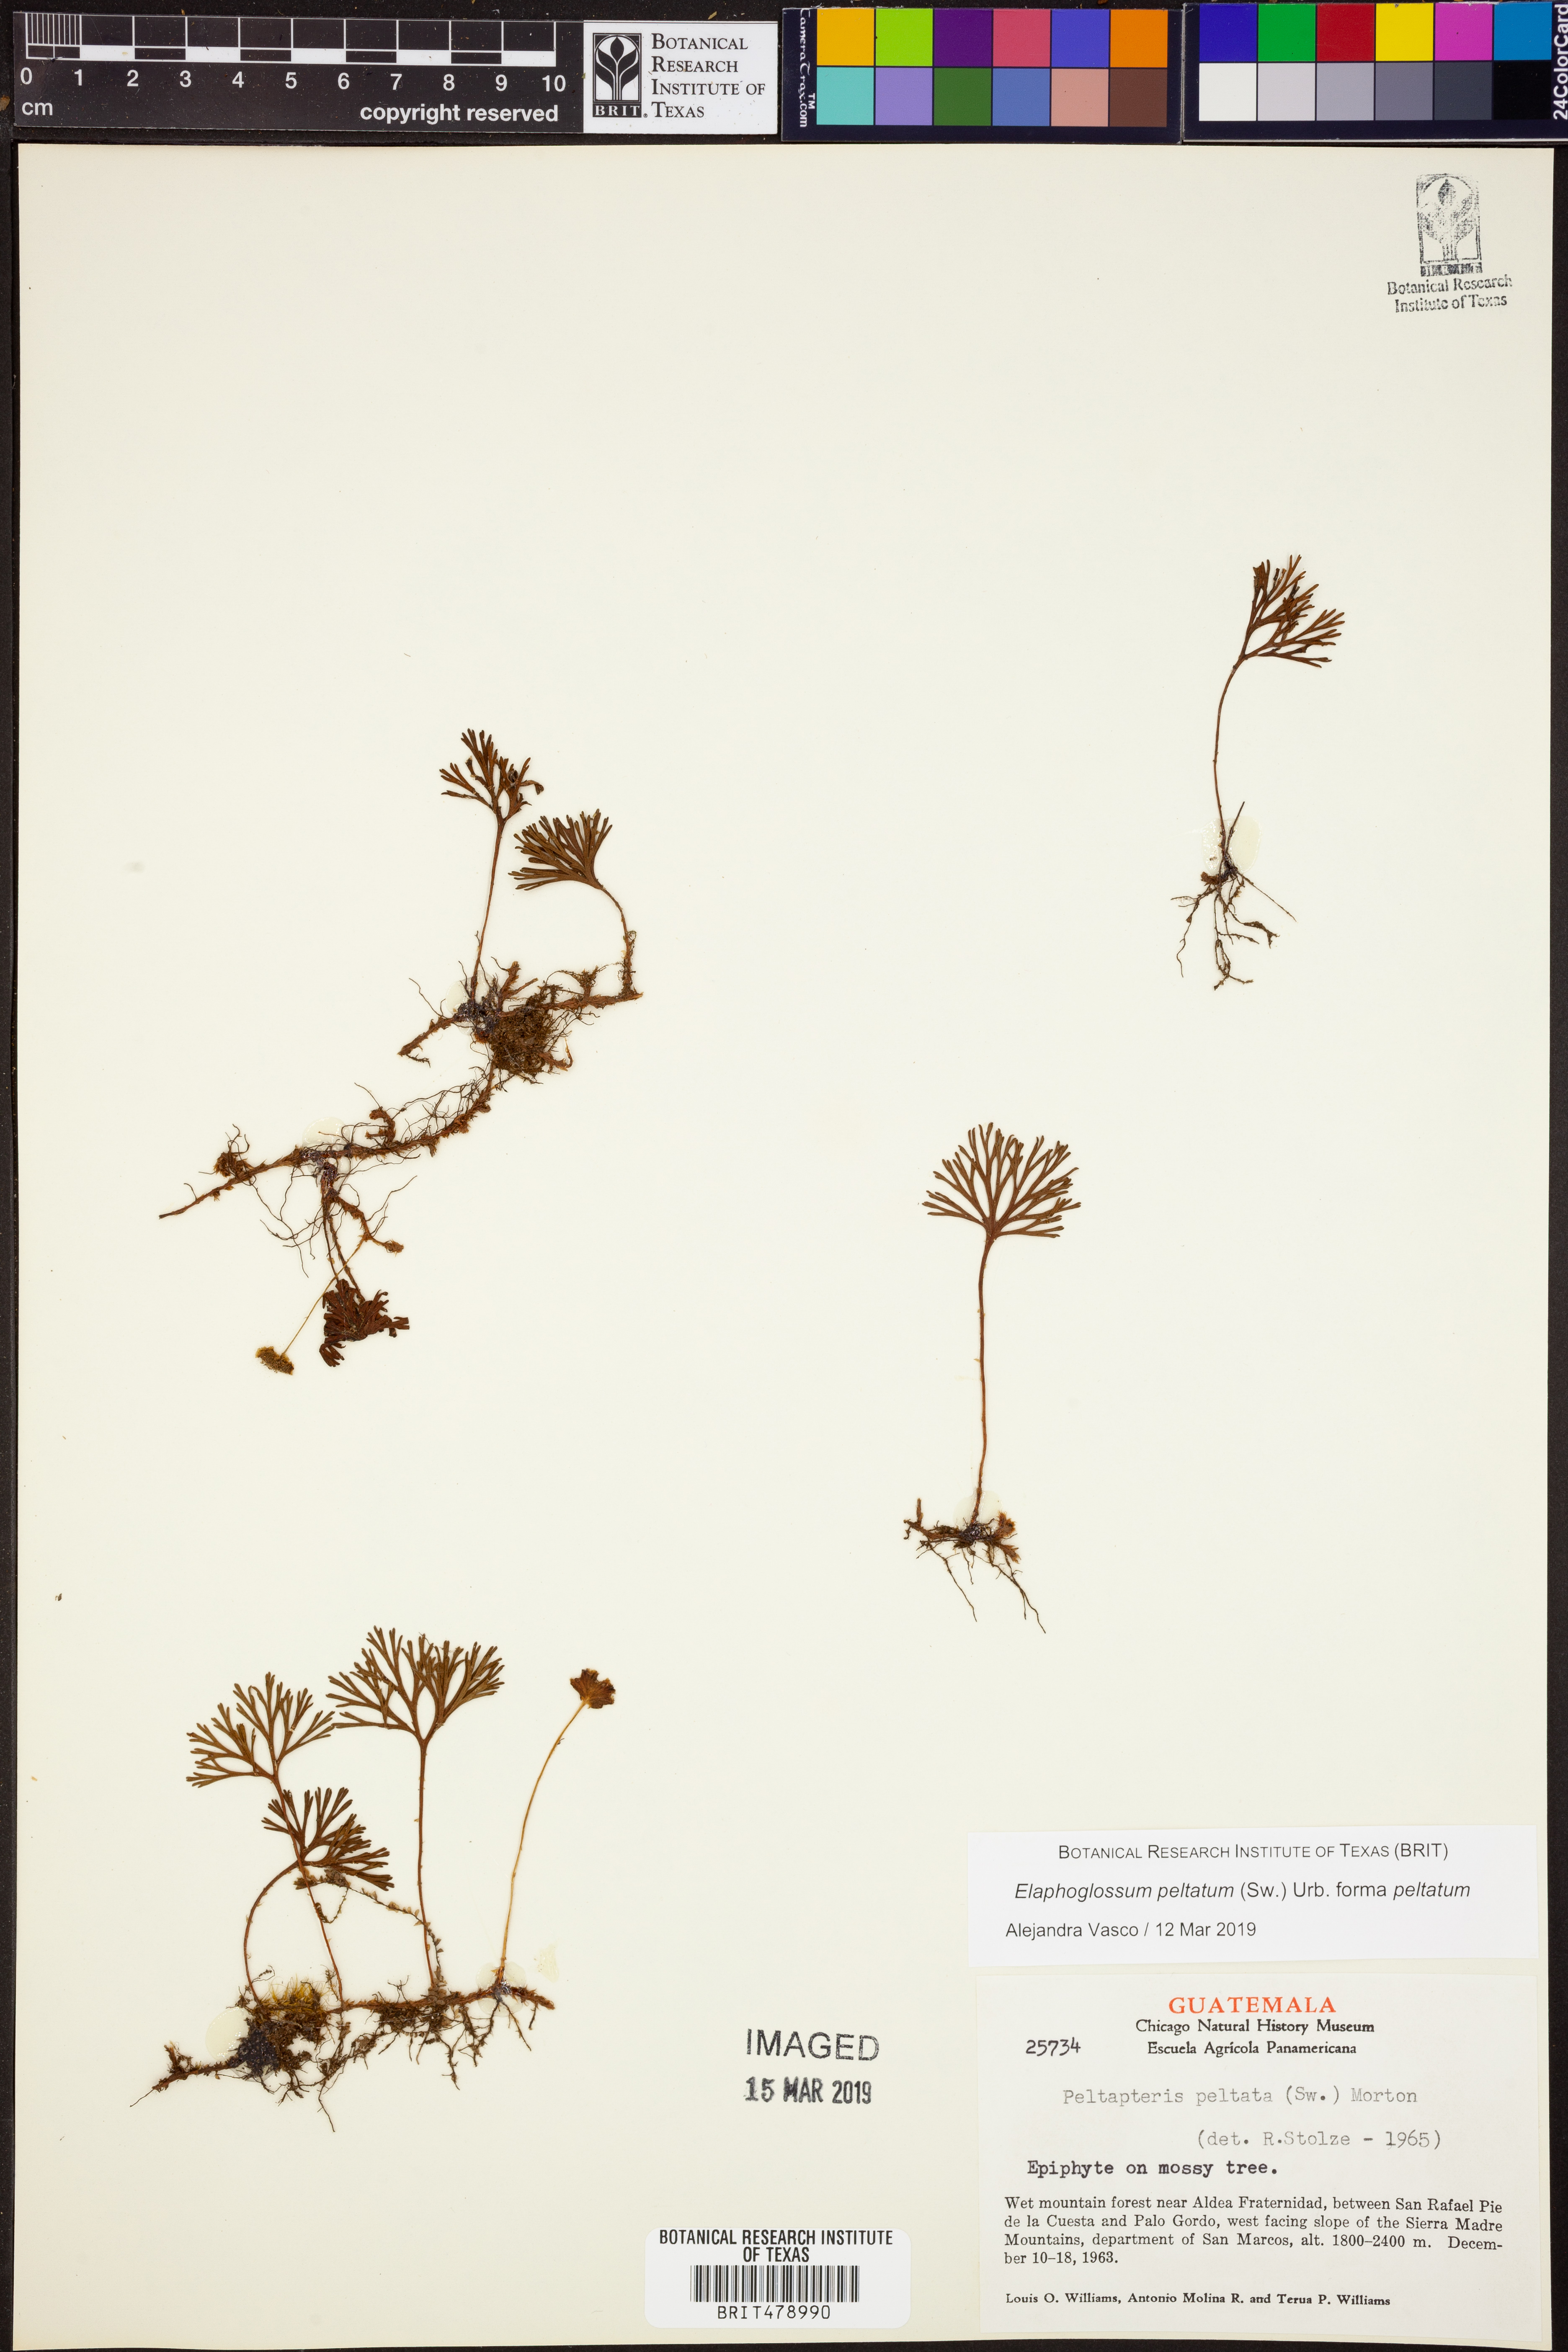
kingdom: Plantae
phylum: Tracheophyta
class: Polypodiopsida
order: Polypodiales
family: Dryopteridaceae
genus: Elaphoglossum
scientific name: Elaphoglossum peltatum
